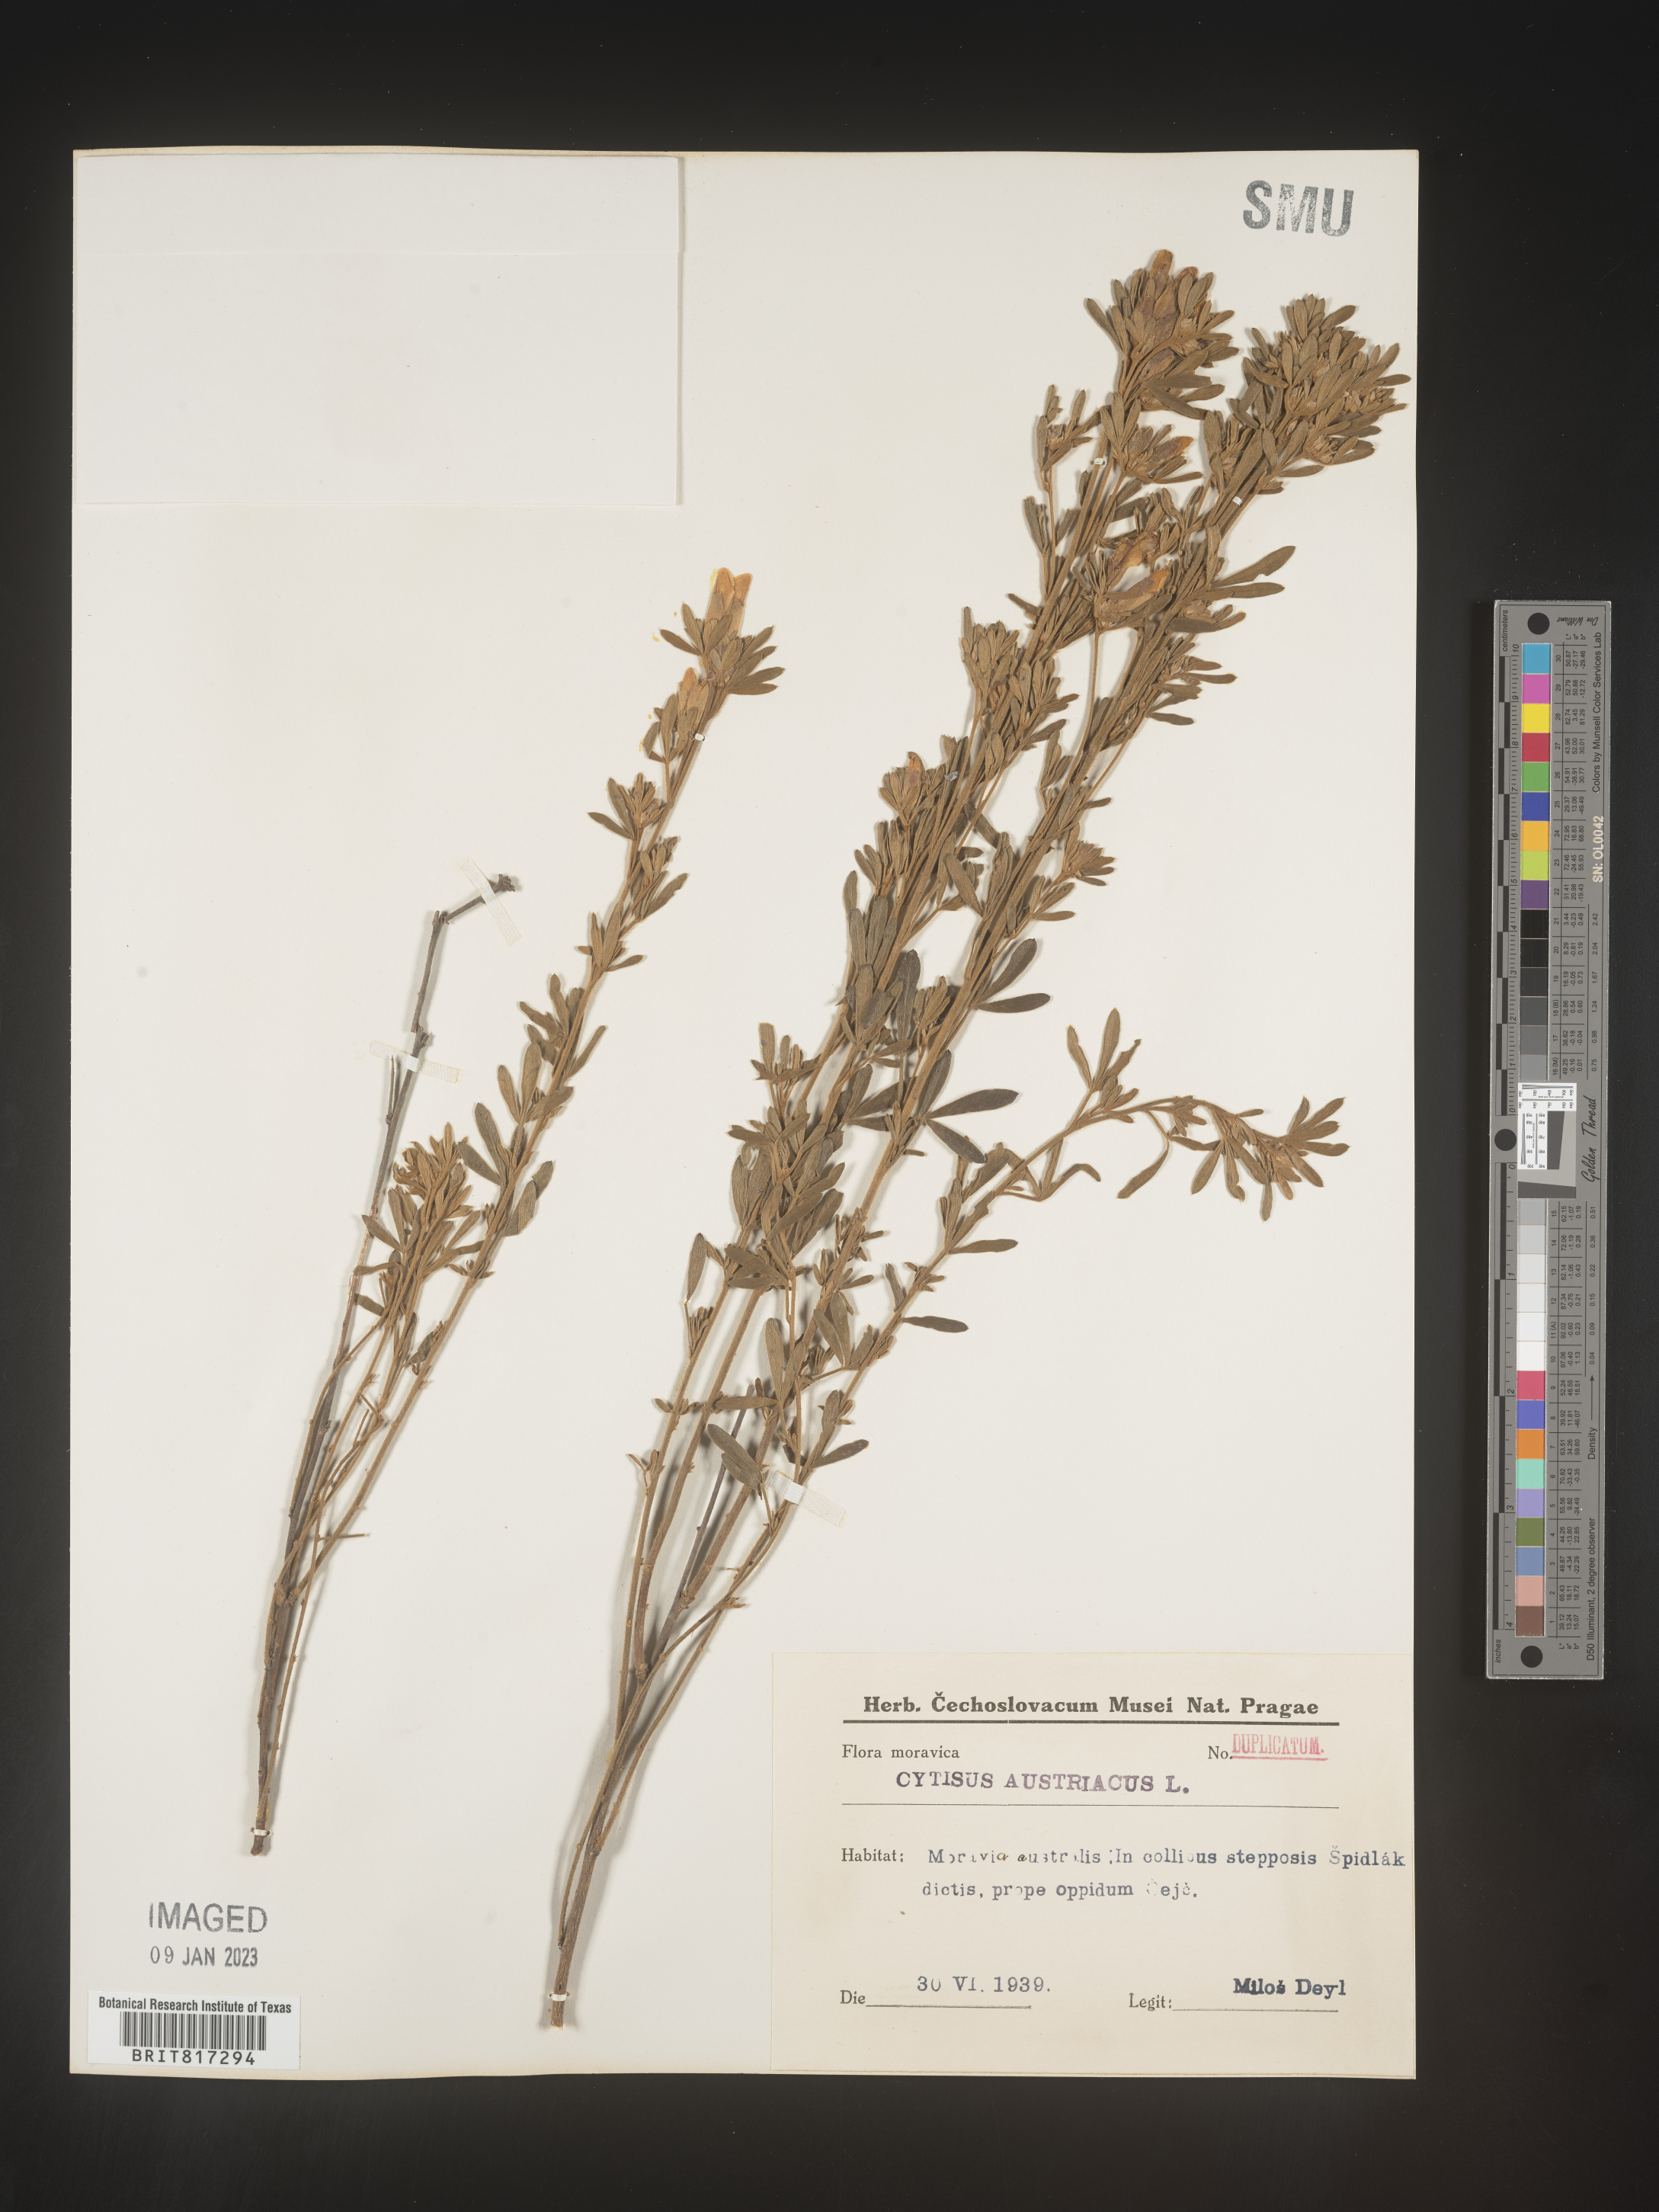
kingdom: Plantae
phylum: Tracheophyta
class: Magnoliopsida
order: Fabales
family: Fabaceae
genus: Cytisus
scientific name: Cytisus
